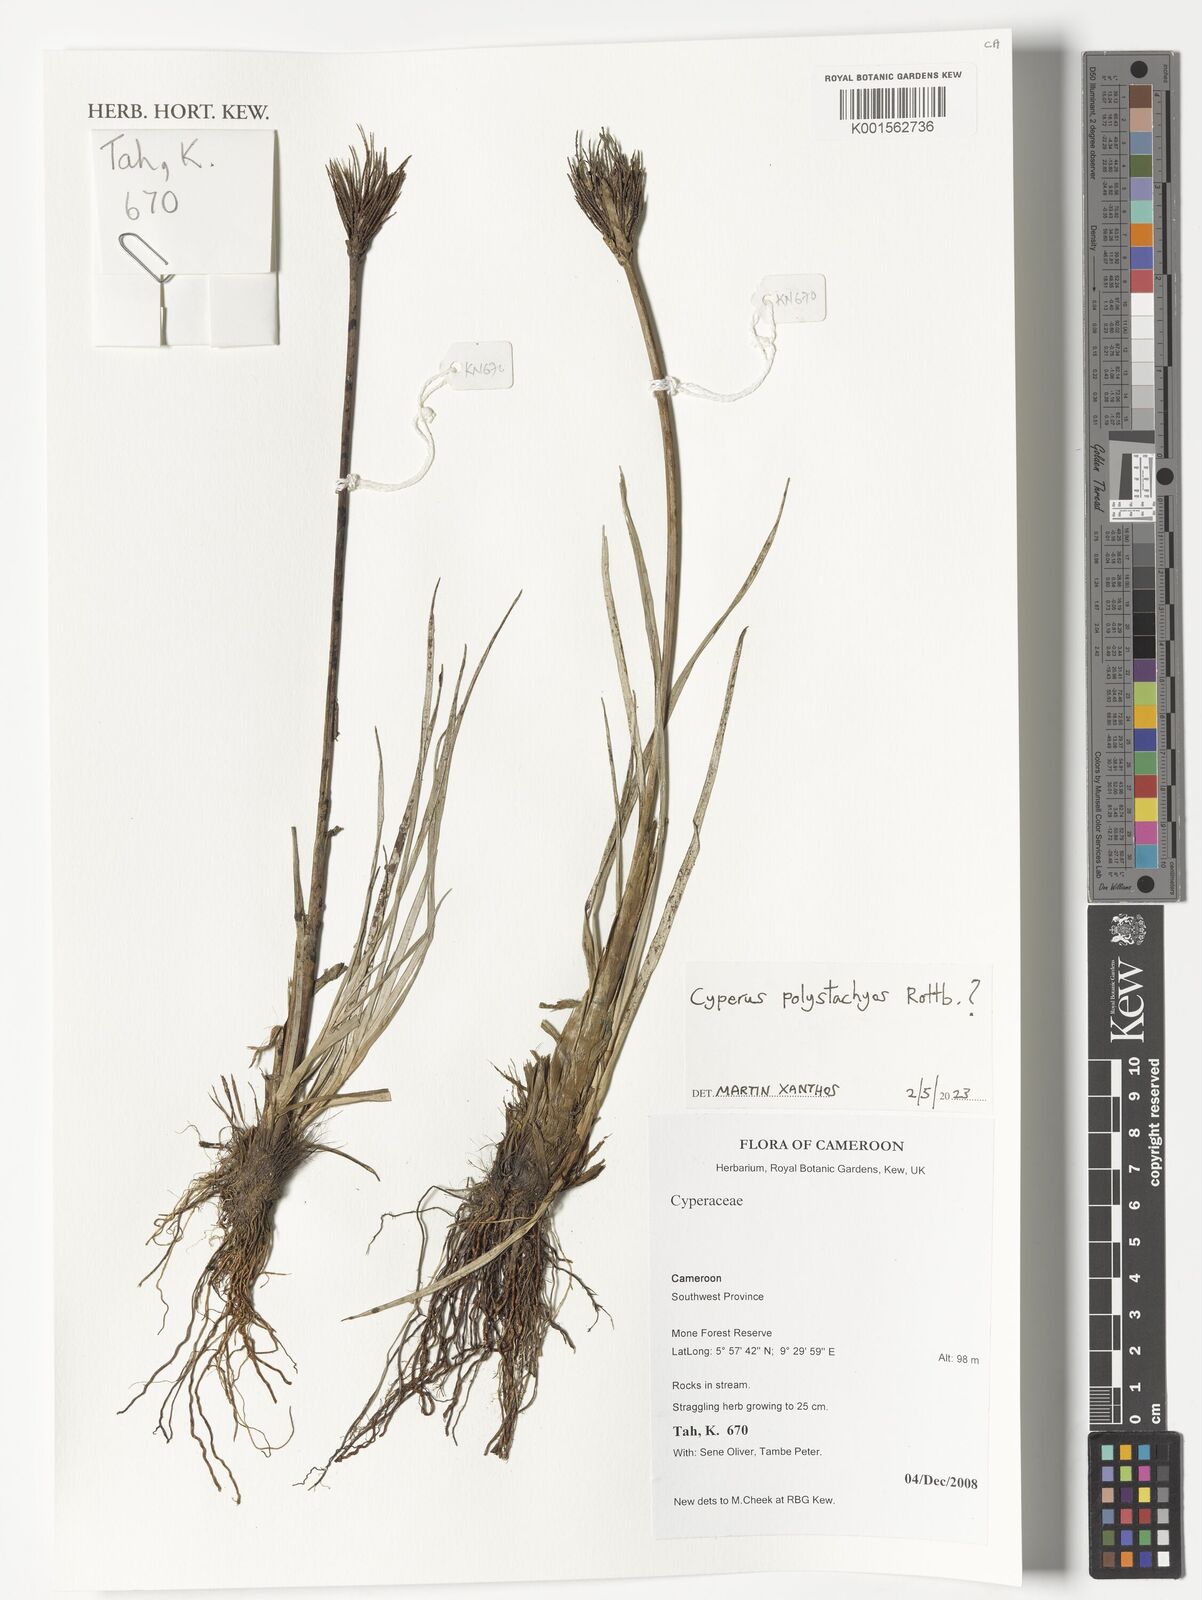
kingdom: Plantae
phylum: Tracheophyta
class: Liliopsida
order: Poales
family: Cyperaceae
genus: Cyperus
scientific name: Cyperus polystachyos
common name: Bunchy flat sedge
